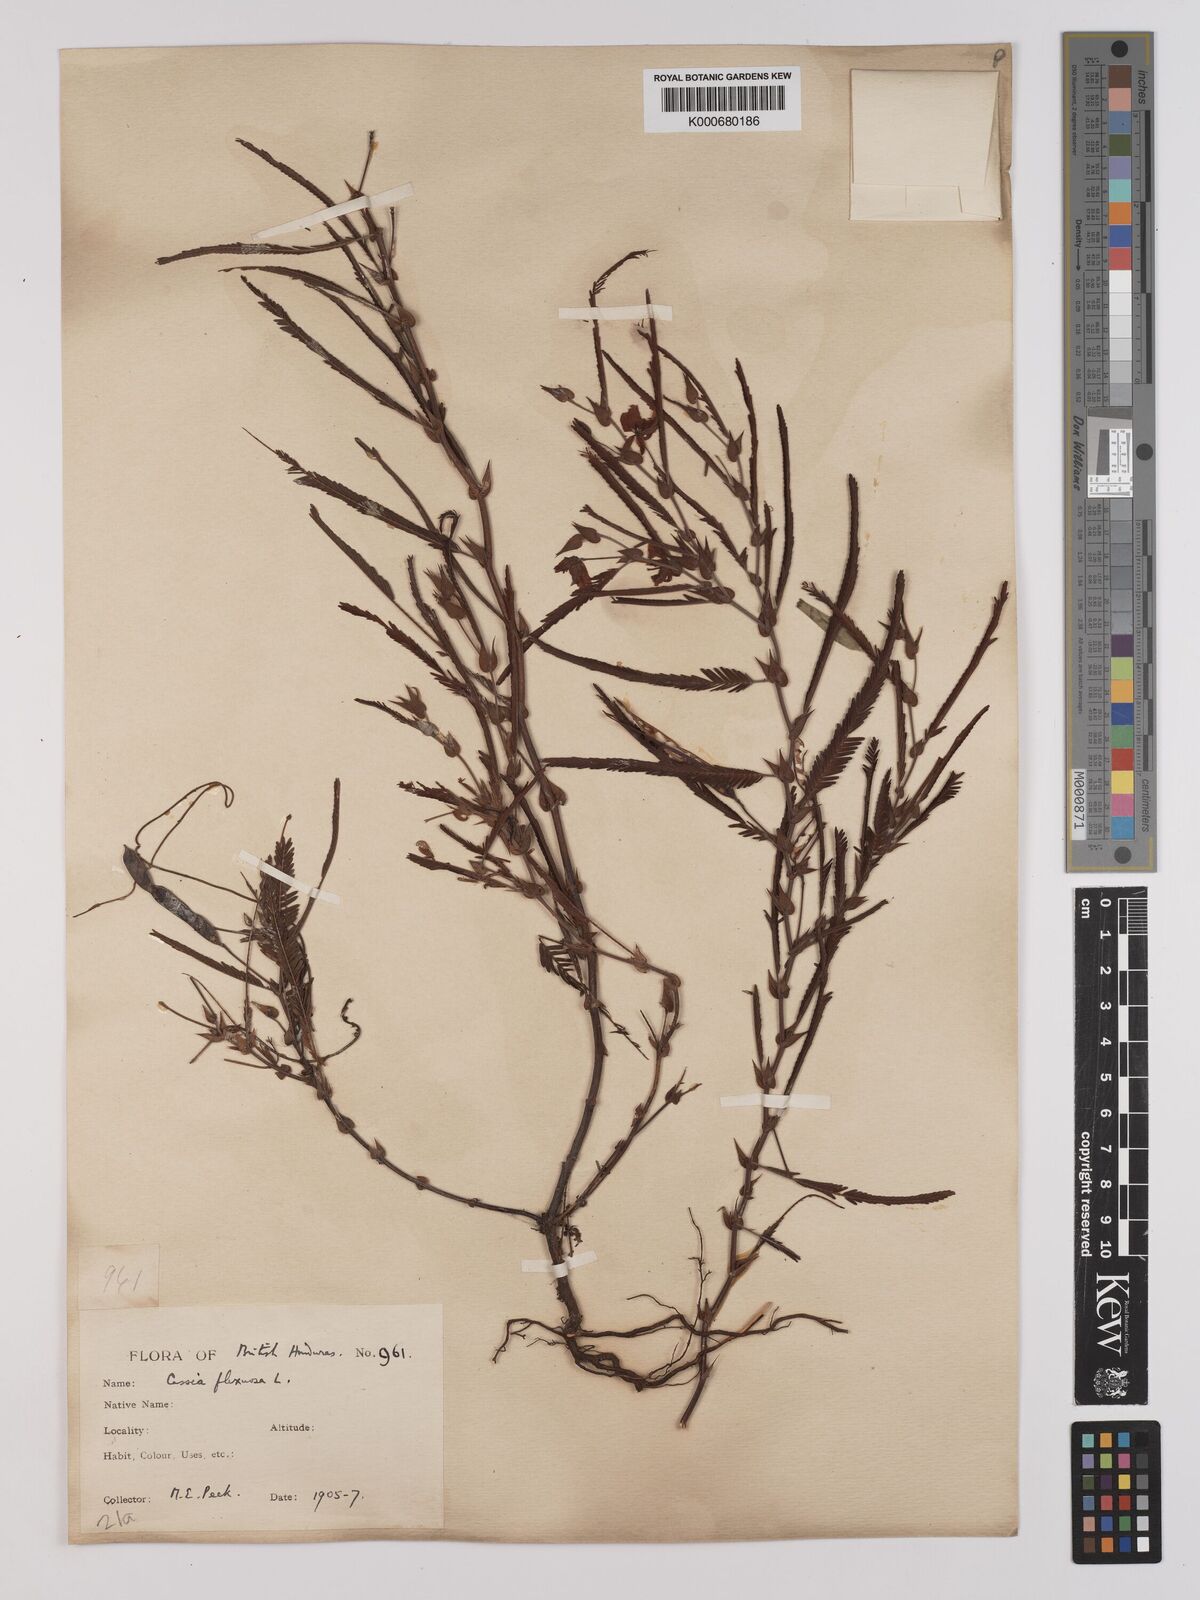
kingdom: Plantae
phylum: Tracheophyta
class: Magnoliopsida
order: Fabales
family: Fabaceae
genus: Chamaecrista
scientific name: Chamaecrista flexuosa
